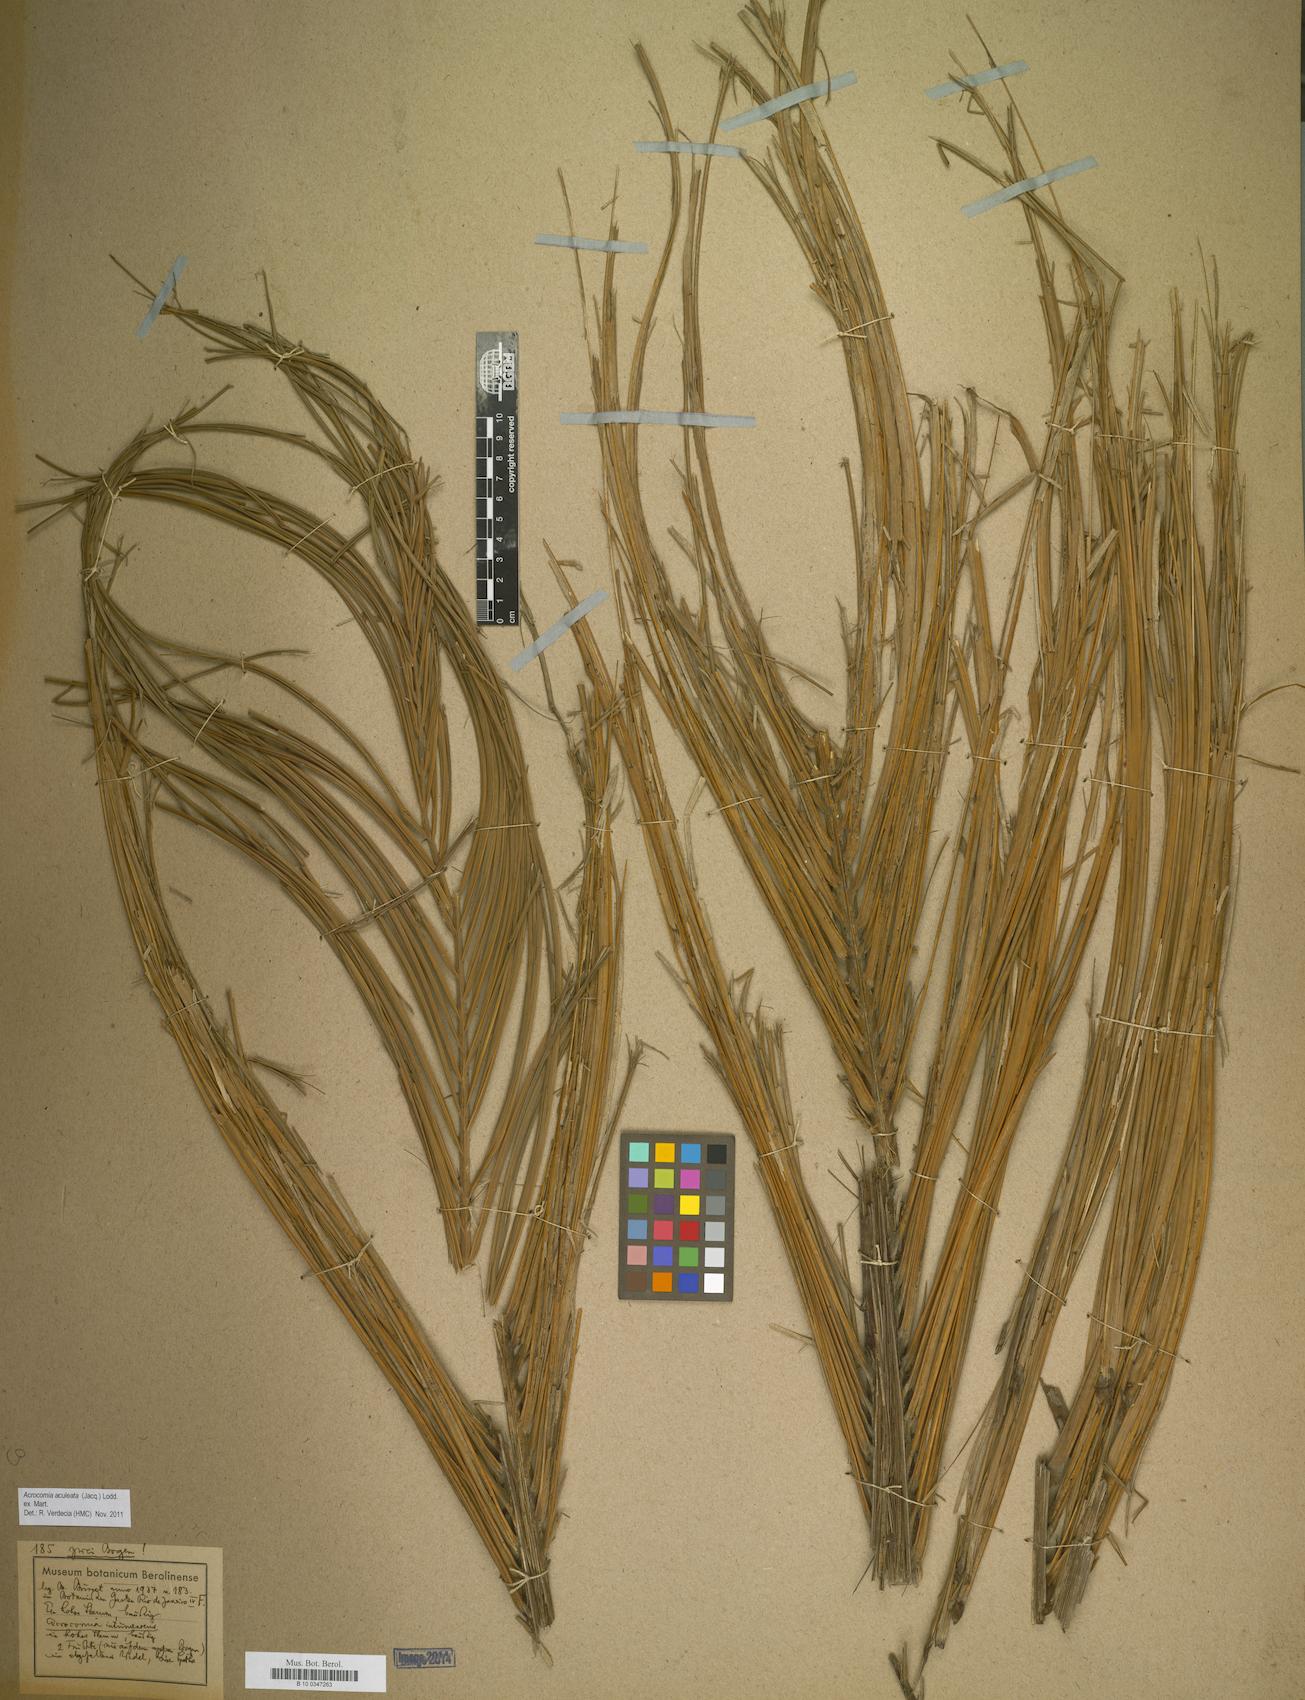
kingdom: Plantae
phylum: Tracheophyta
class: Liliopsida
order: Arecales
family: Arecaceae
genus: Acrocomia
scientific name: Acrocomia aculeata
